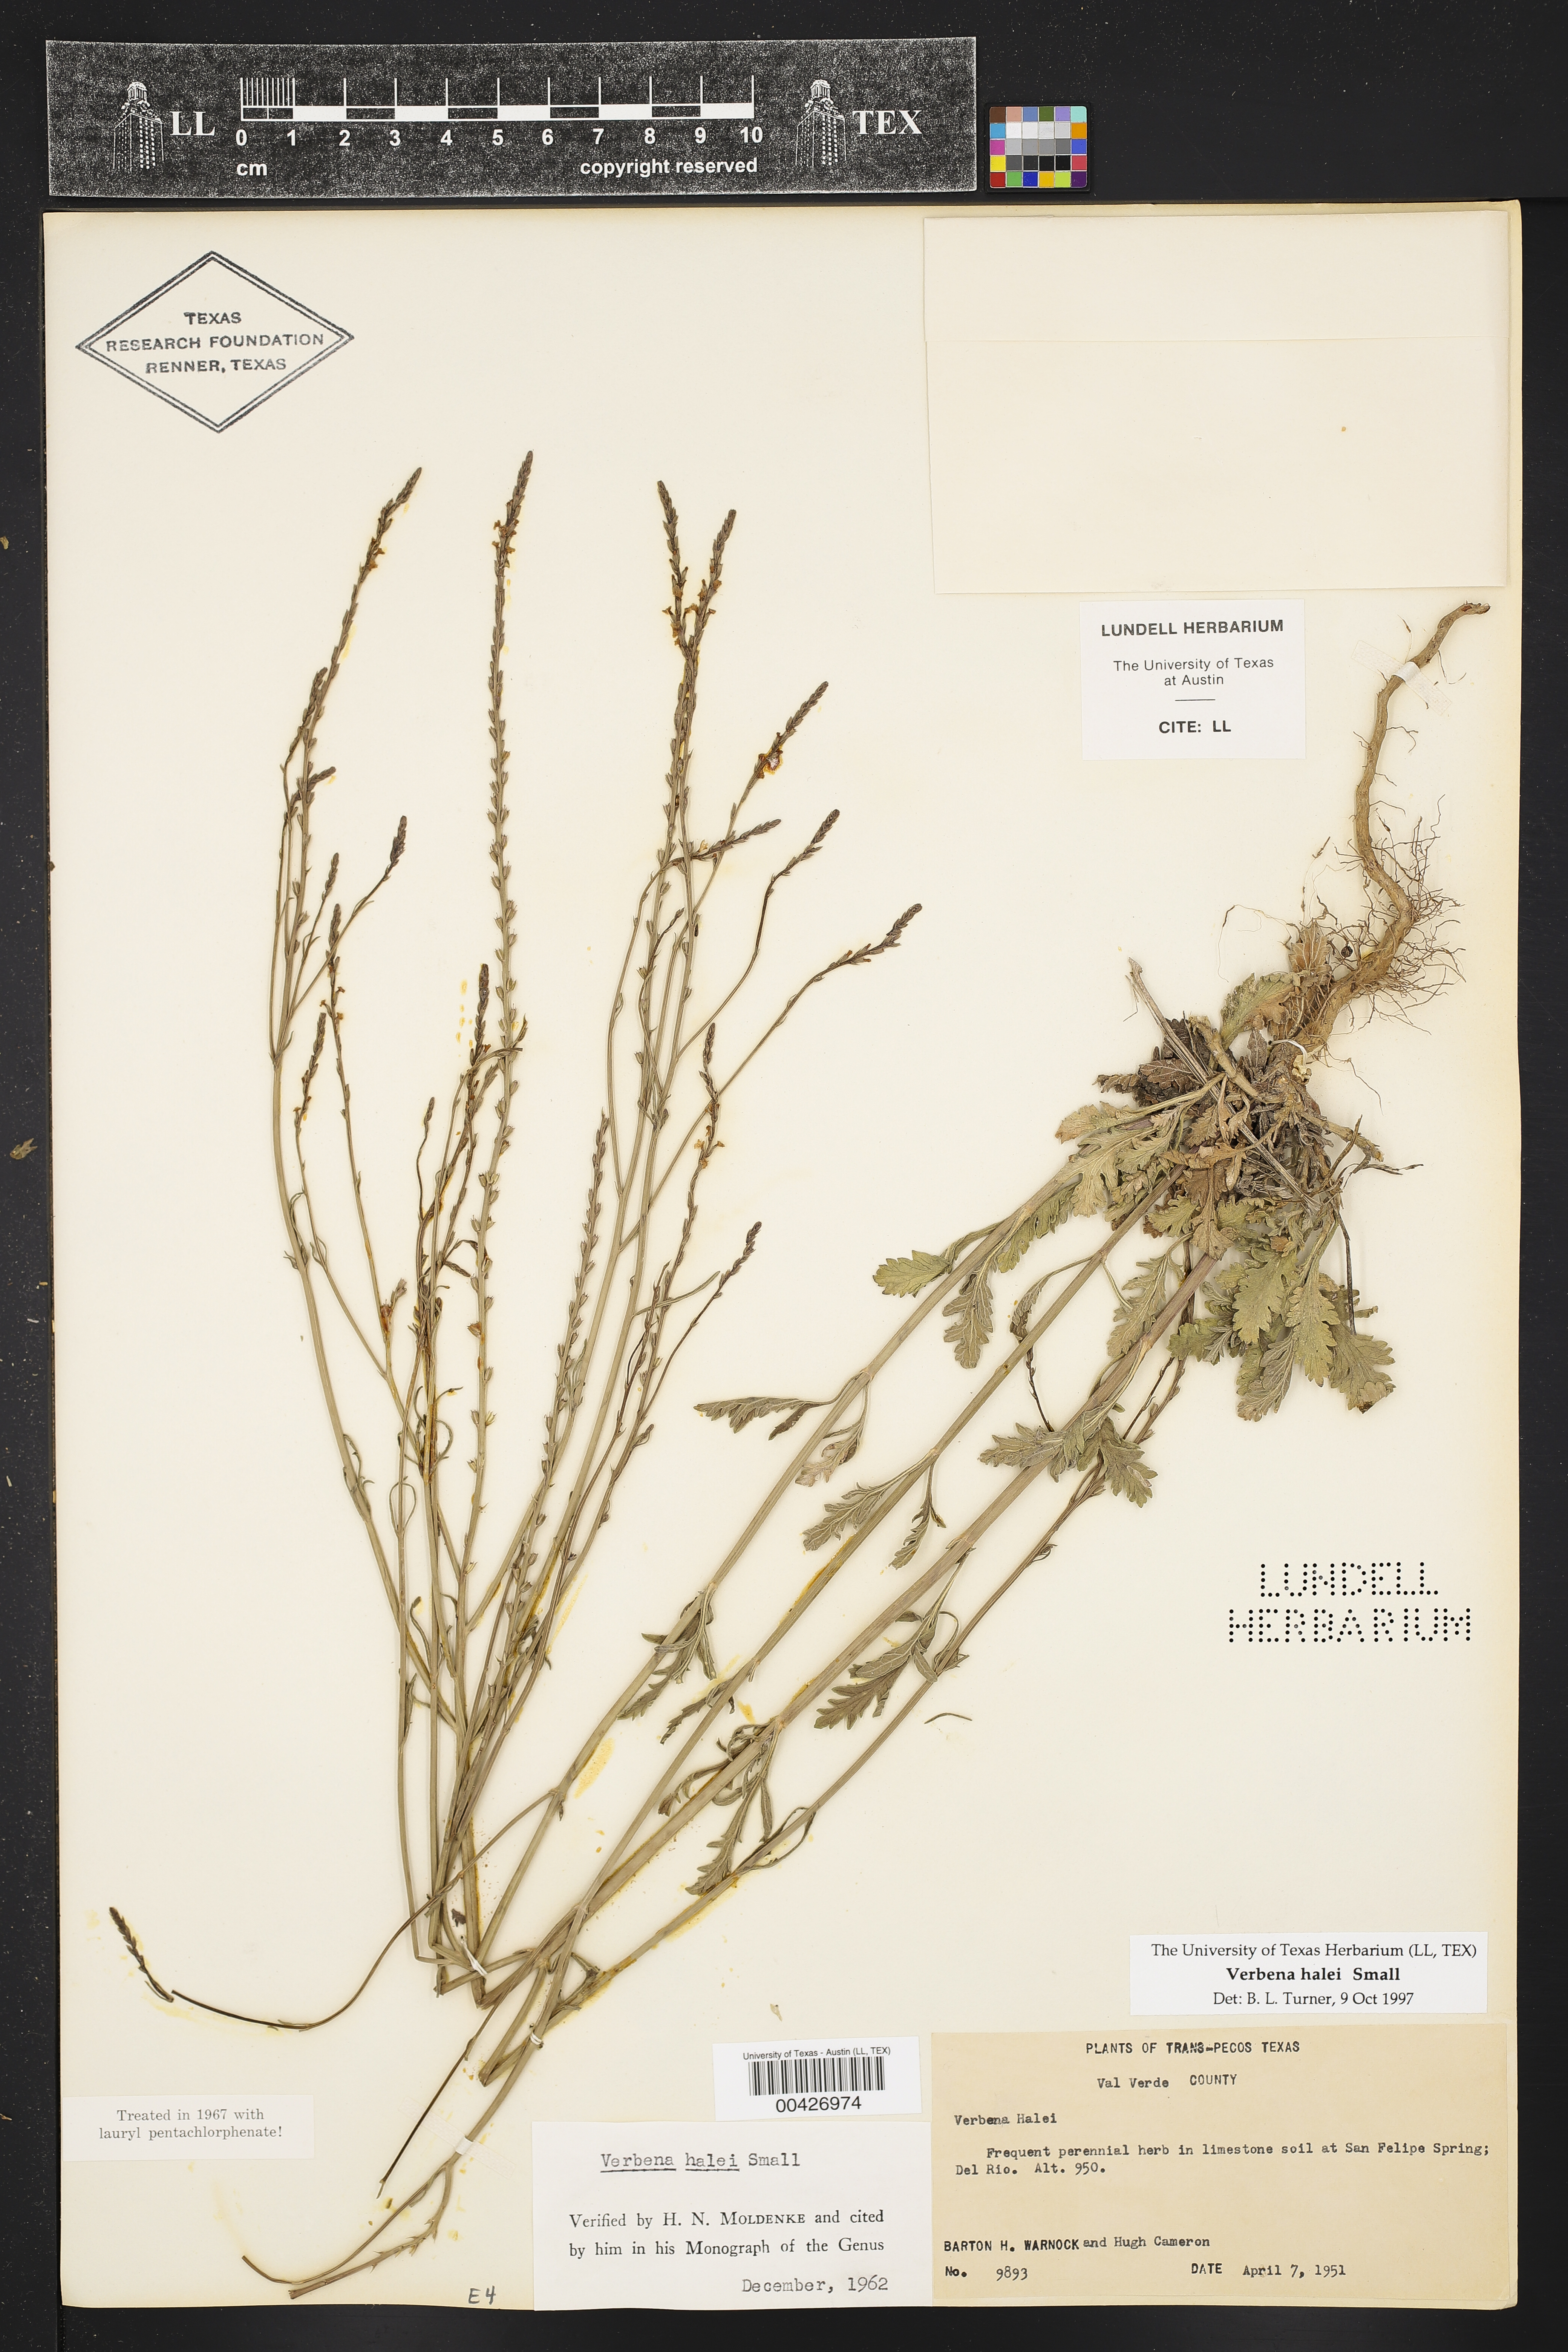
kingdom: Plantae
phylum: Tracheophyta
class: Magnoliopsida
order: Lamiales
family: Verbenaceae
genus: Verbena
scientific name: Verbena halei
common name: Texas vervain
